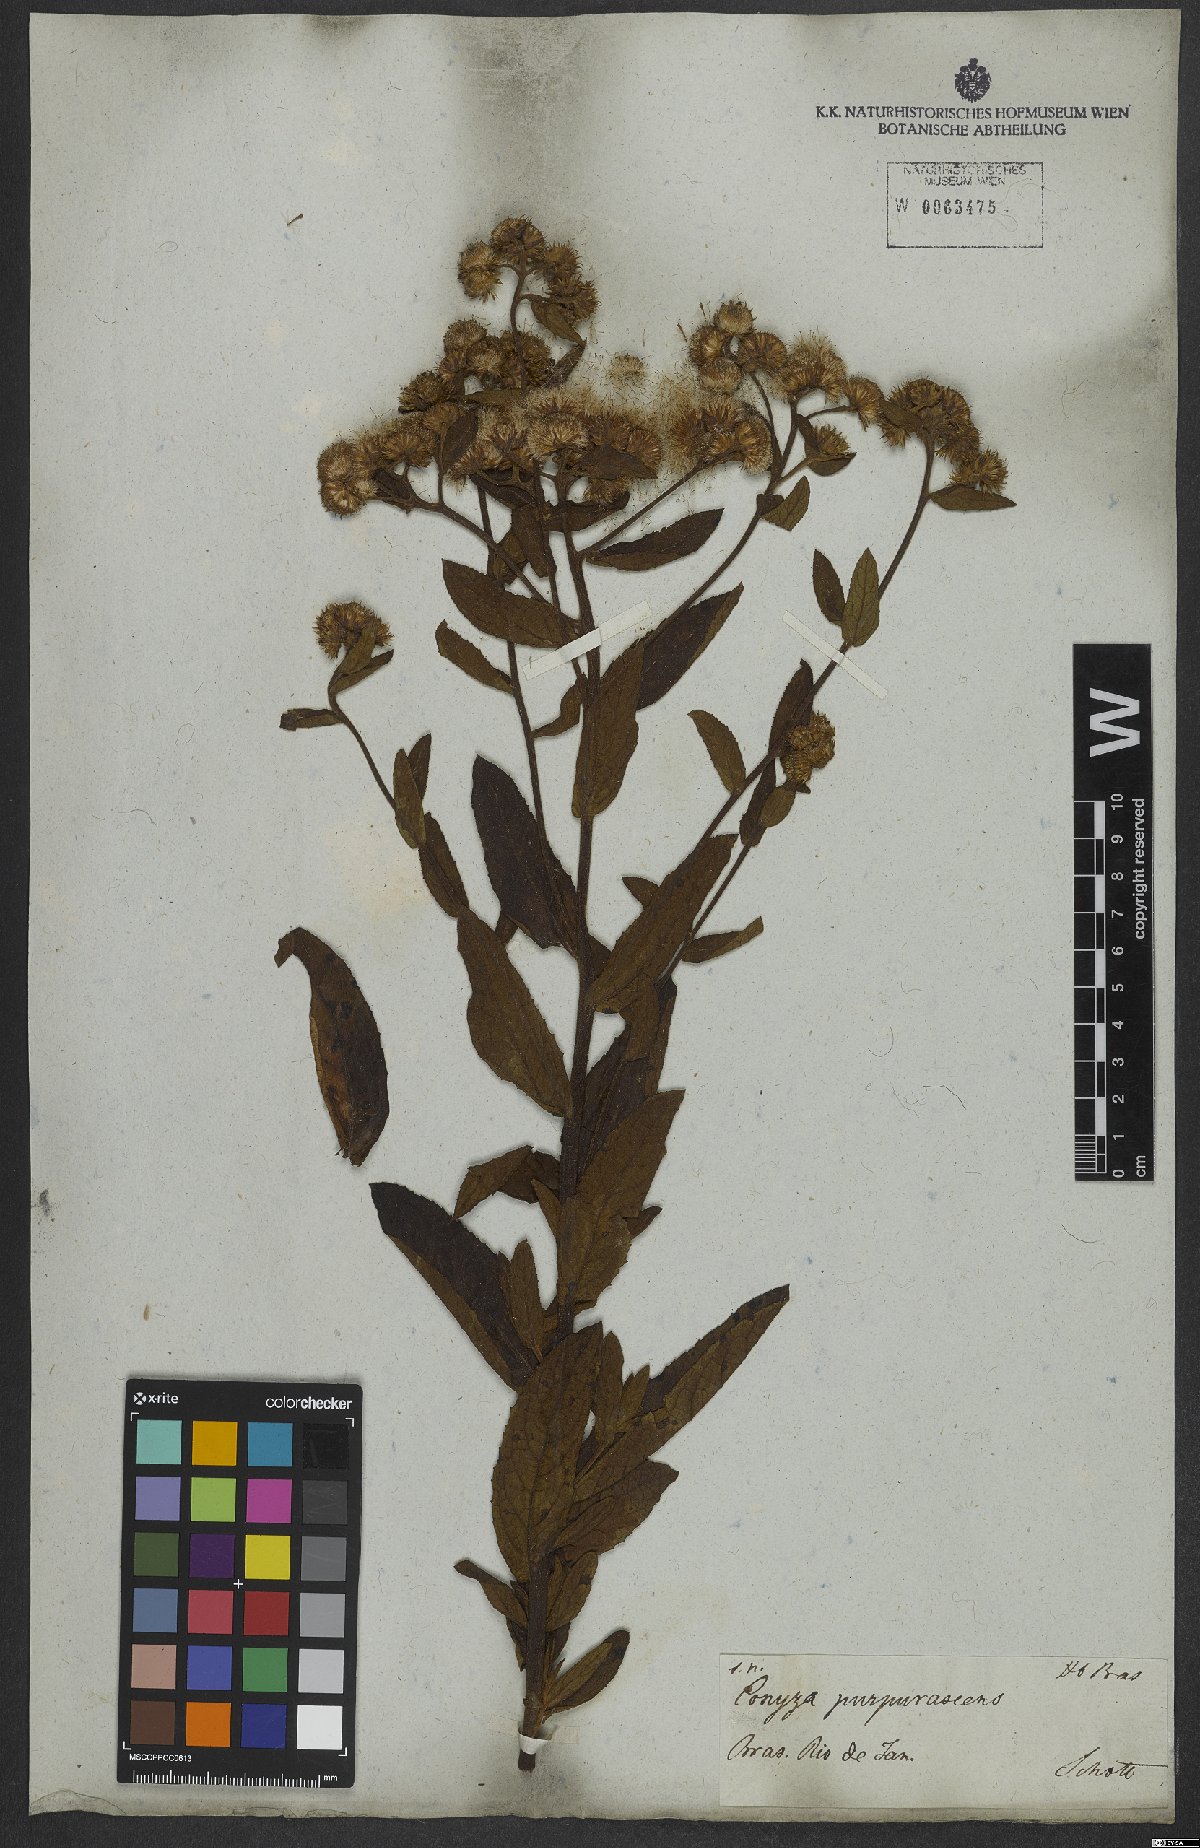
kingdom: Plantae
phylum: Tracheophyta
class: Magnoliopsida
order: Asterales
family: Asteraceae
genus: Pluchea
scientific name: Pluchea oblongifolia
